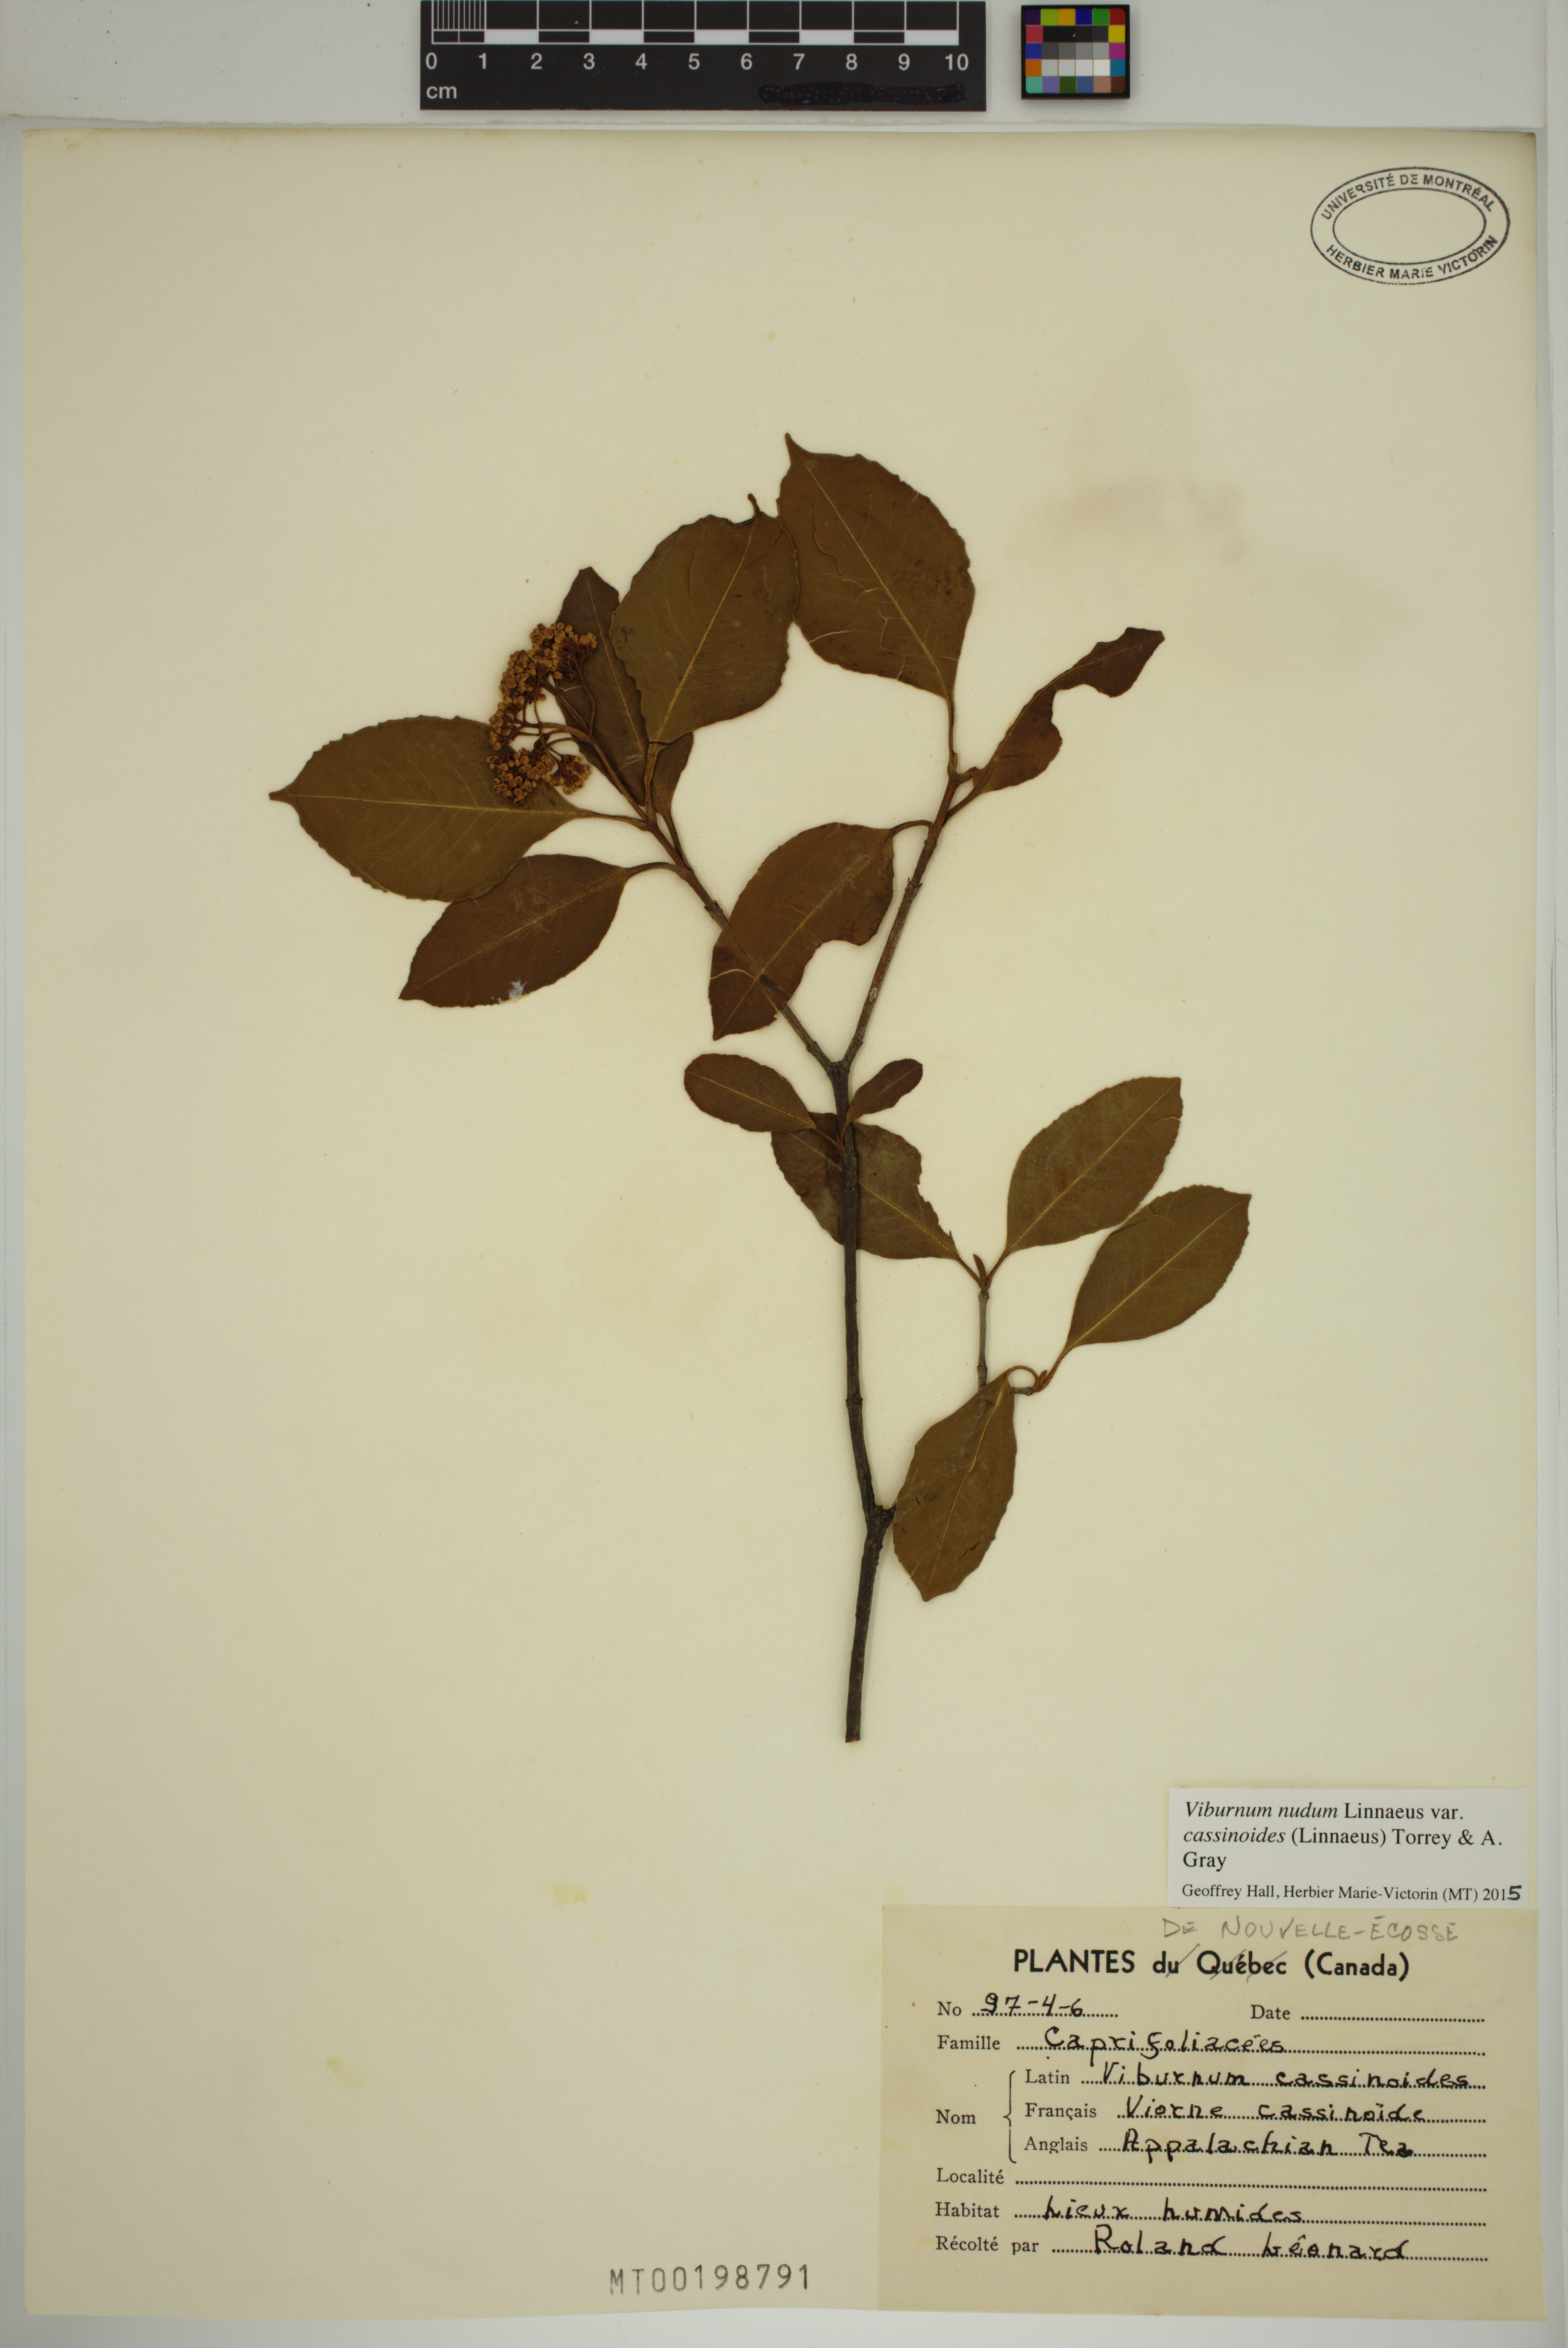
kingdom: Plantae
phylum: Tracheophyta
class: Magnoliopsida
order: Dipsacales
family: Viburnaceae
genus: Viburnum
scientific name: Viburnum cassinoides
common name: Swamp haw
